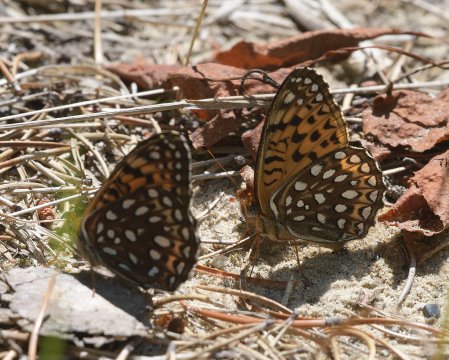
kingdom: Animalia
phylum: Arthropoda
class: Insecta
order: Lepidoptera
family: Nymphalidae
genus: Speyeria
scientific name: Speyeria atlantis
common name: Atlantis Fritillary
